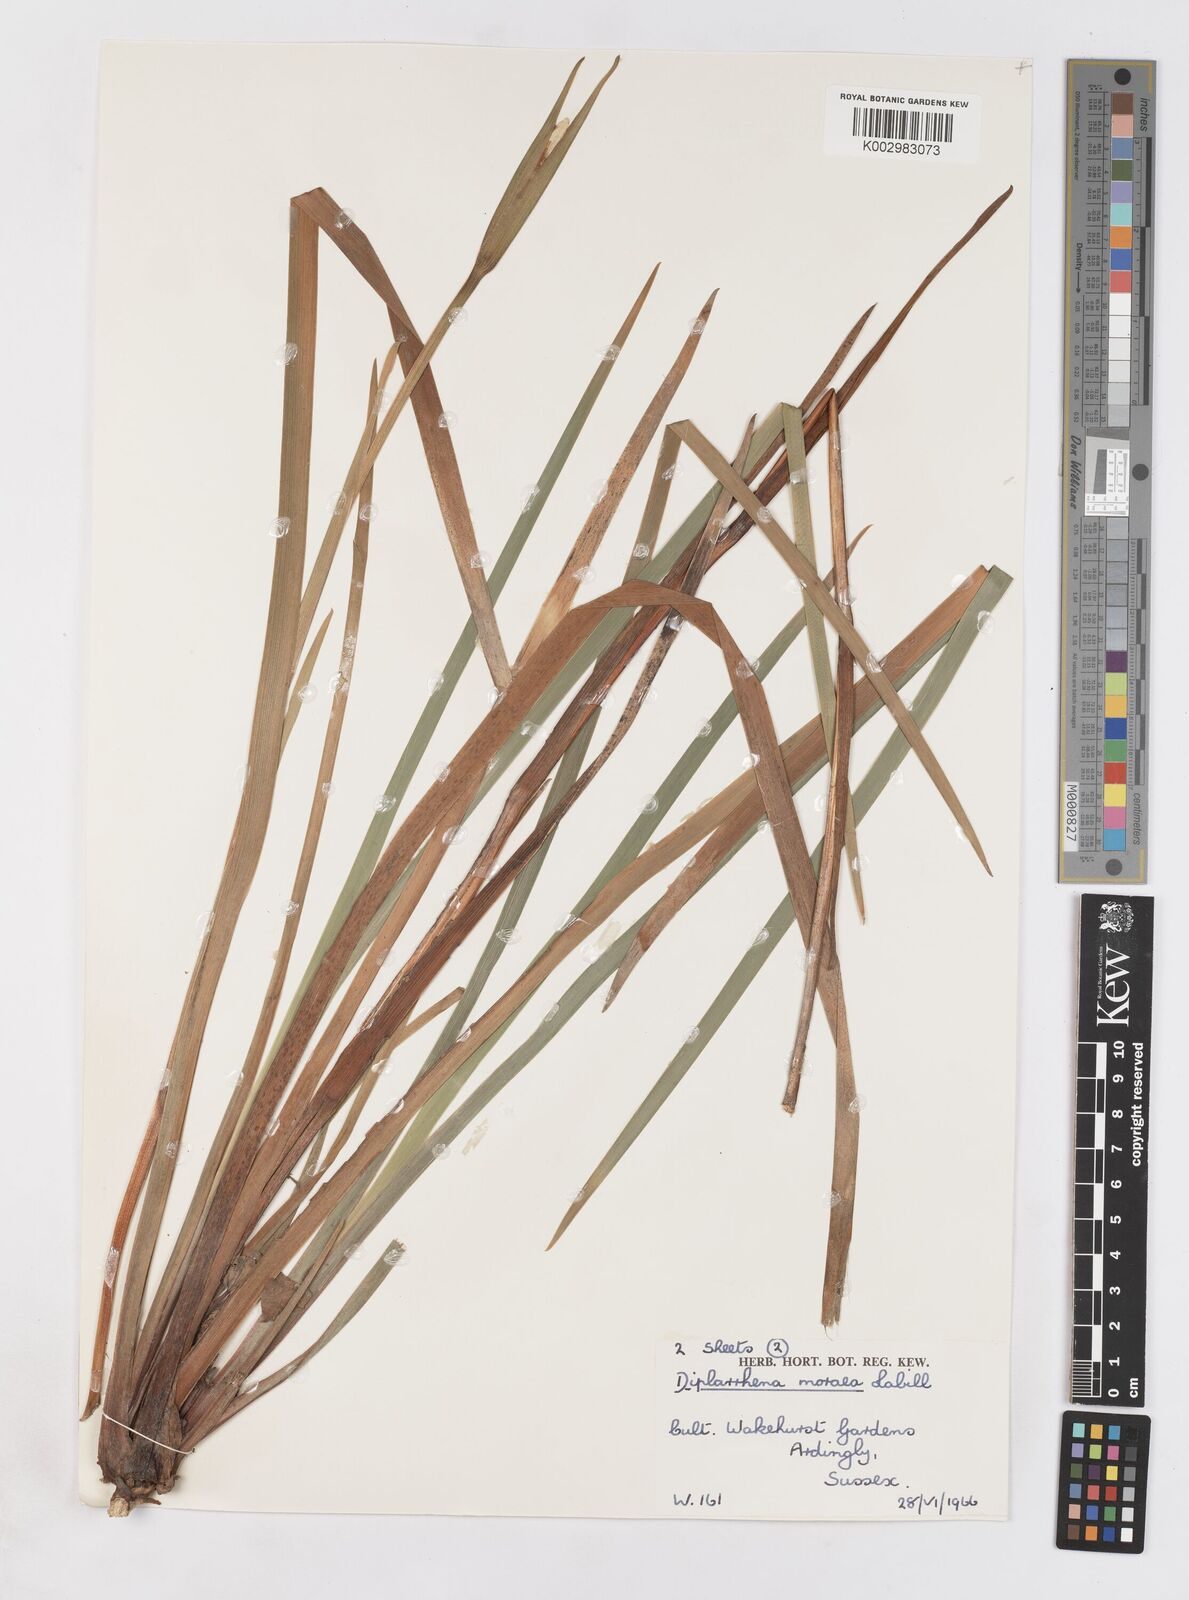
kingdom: Plantae
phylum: Tracheophyta
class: Liliopsida
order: Asparagales
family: Iridaceae
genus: Diplarrena
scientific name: Diplarrena moraea
